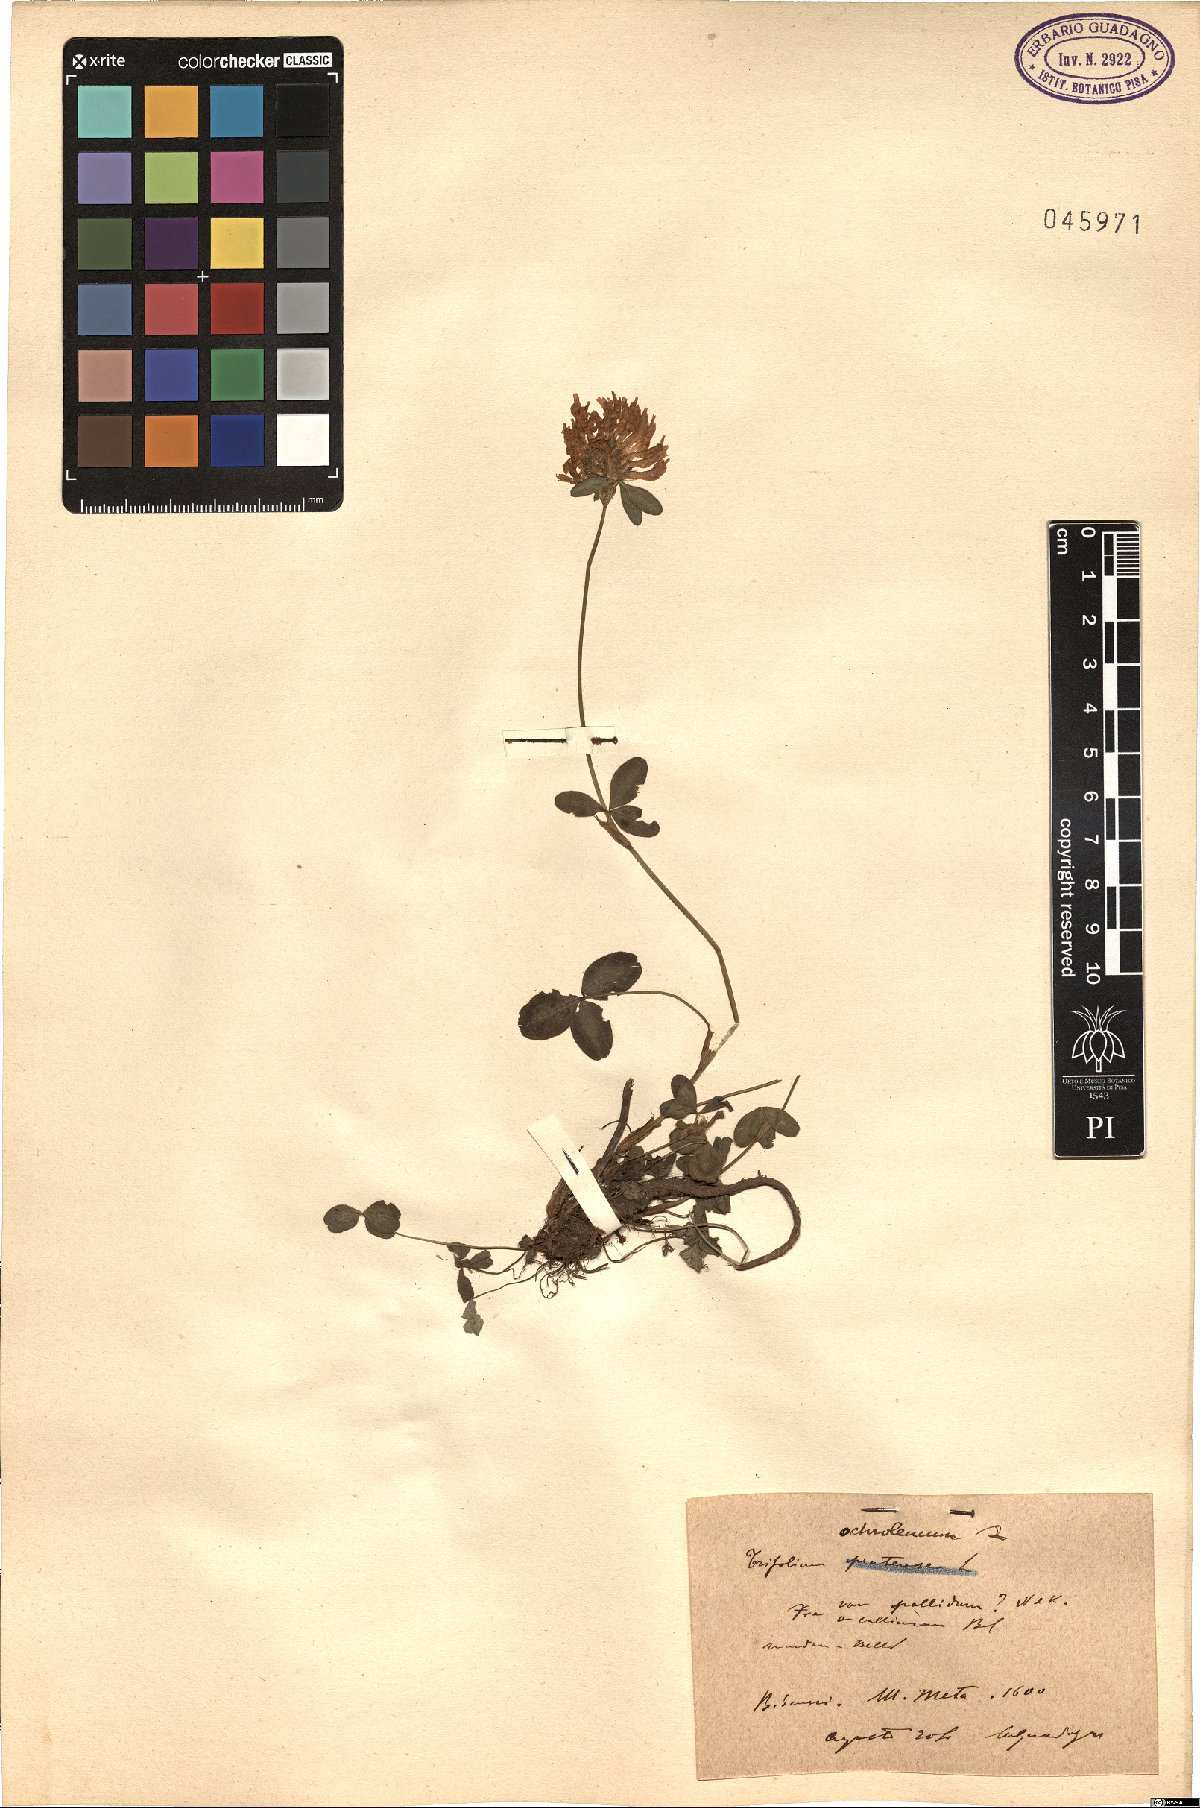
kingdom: Plantae
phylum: Tracheophyta
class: Magnoliopsida
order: Fabales
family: Fabaceae
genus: Trifolium
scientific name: Trifolium ochroleucon
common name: Sulphur clover
